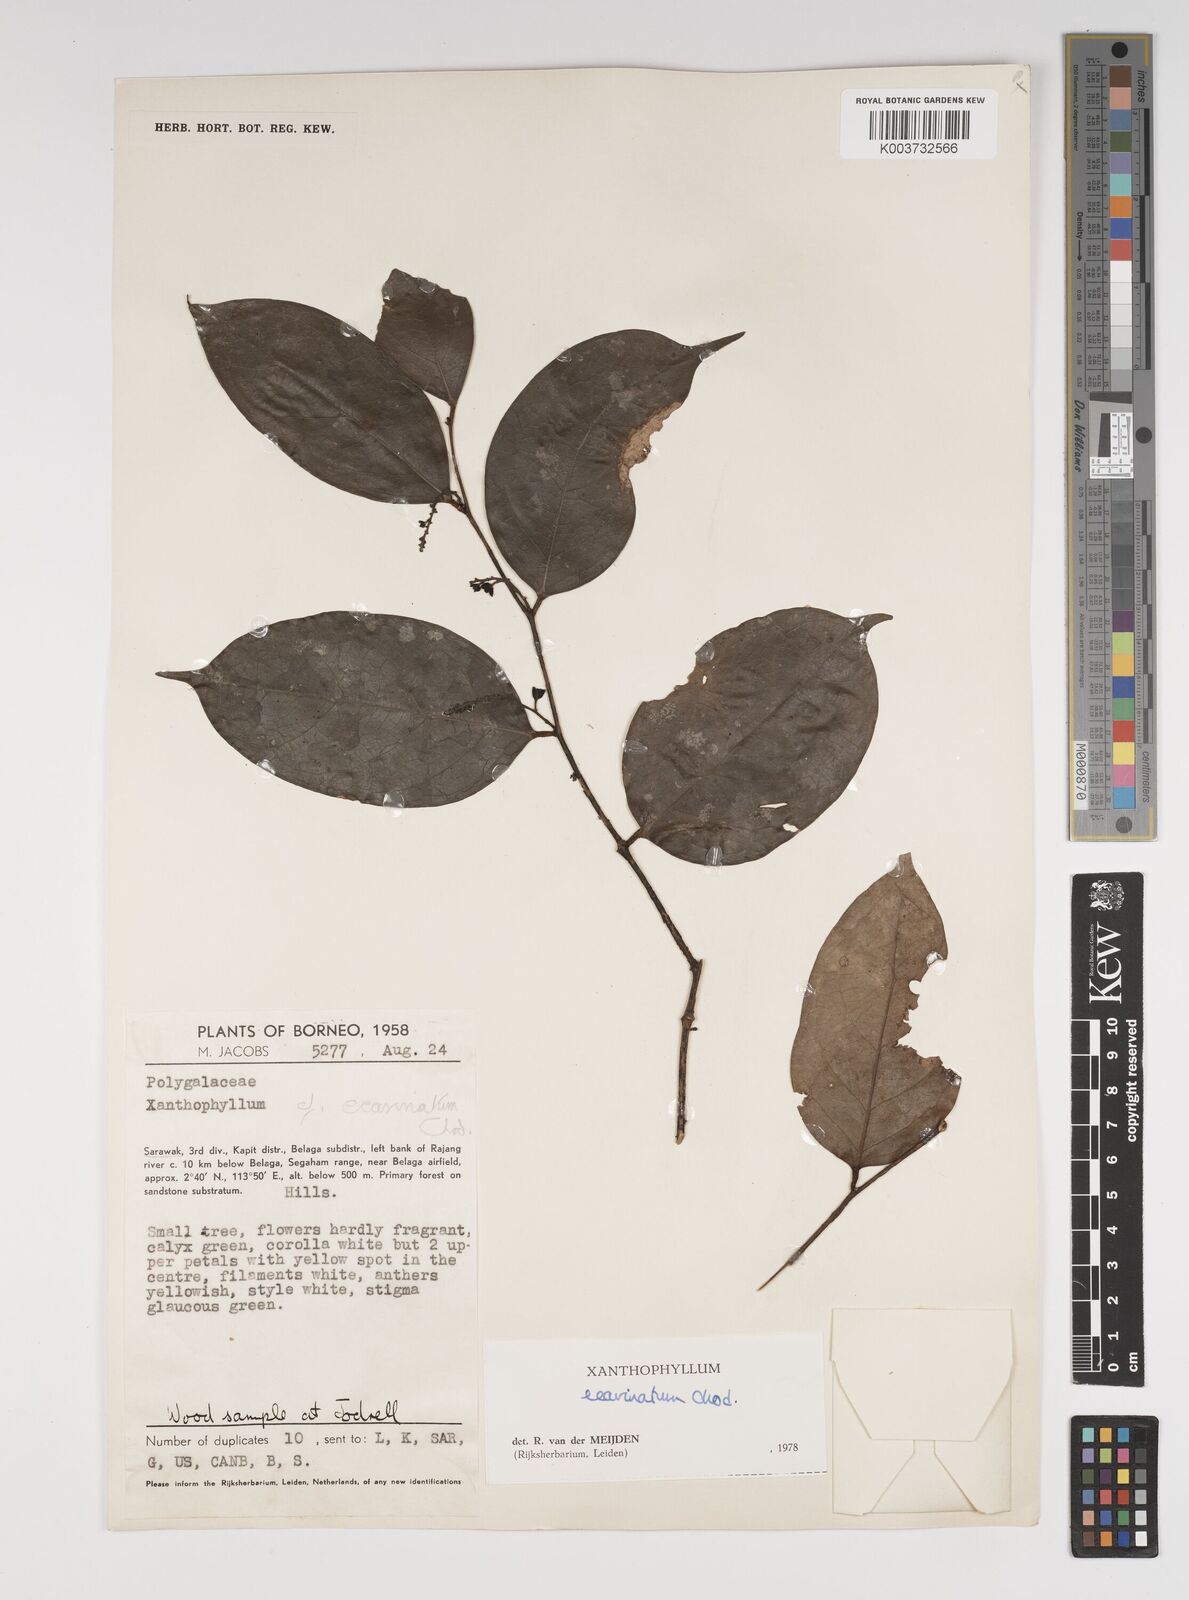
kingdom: Plantae
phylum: Tracheophyta
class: Magnoliopsida
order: Fabales
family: Polygalaceae
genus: Xanthophyllum
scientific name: Xanthophyllum ecarinatum
